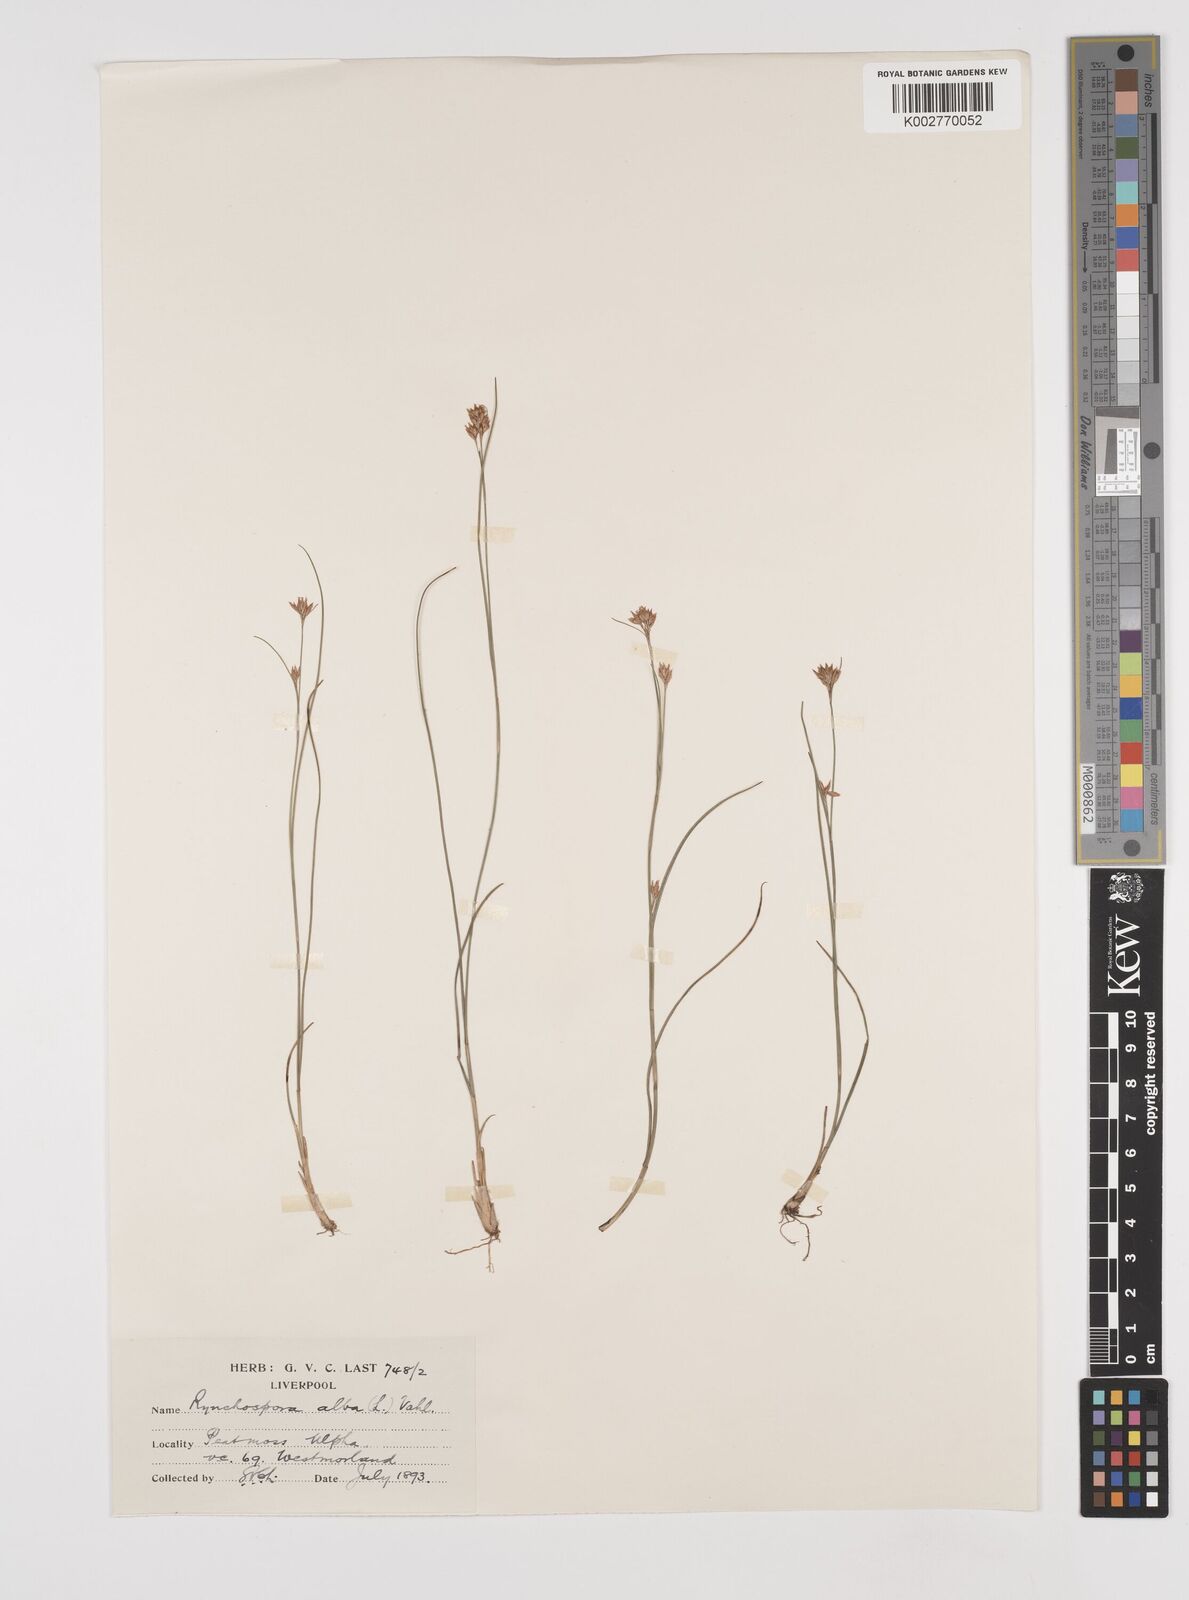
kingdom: Plantae
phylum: Tracheophyta
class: Liliopsida
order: Poales
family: Cyperaceae
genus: Rhynchospora
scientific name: Rhynchospora alba
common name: White beak-sedge
